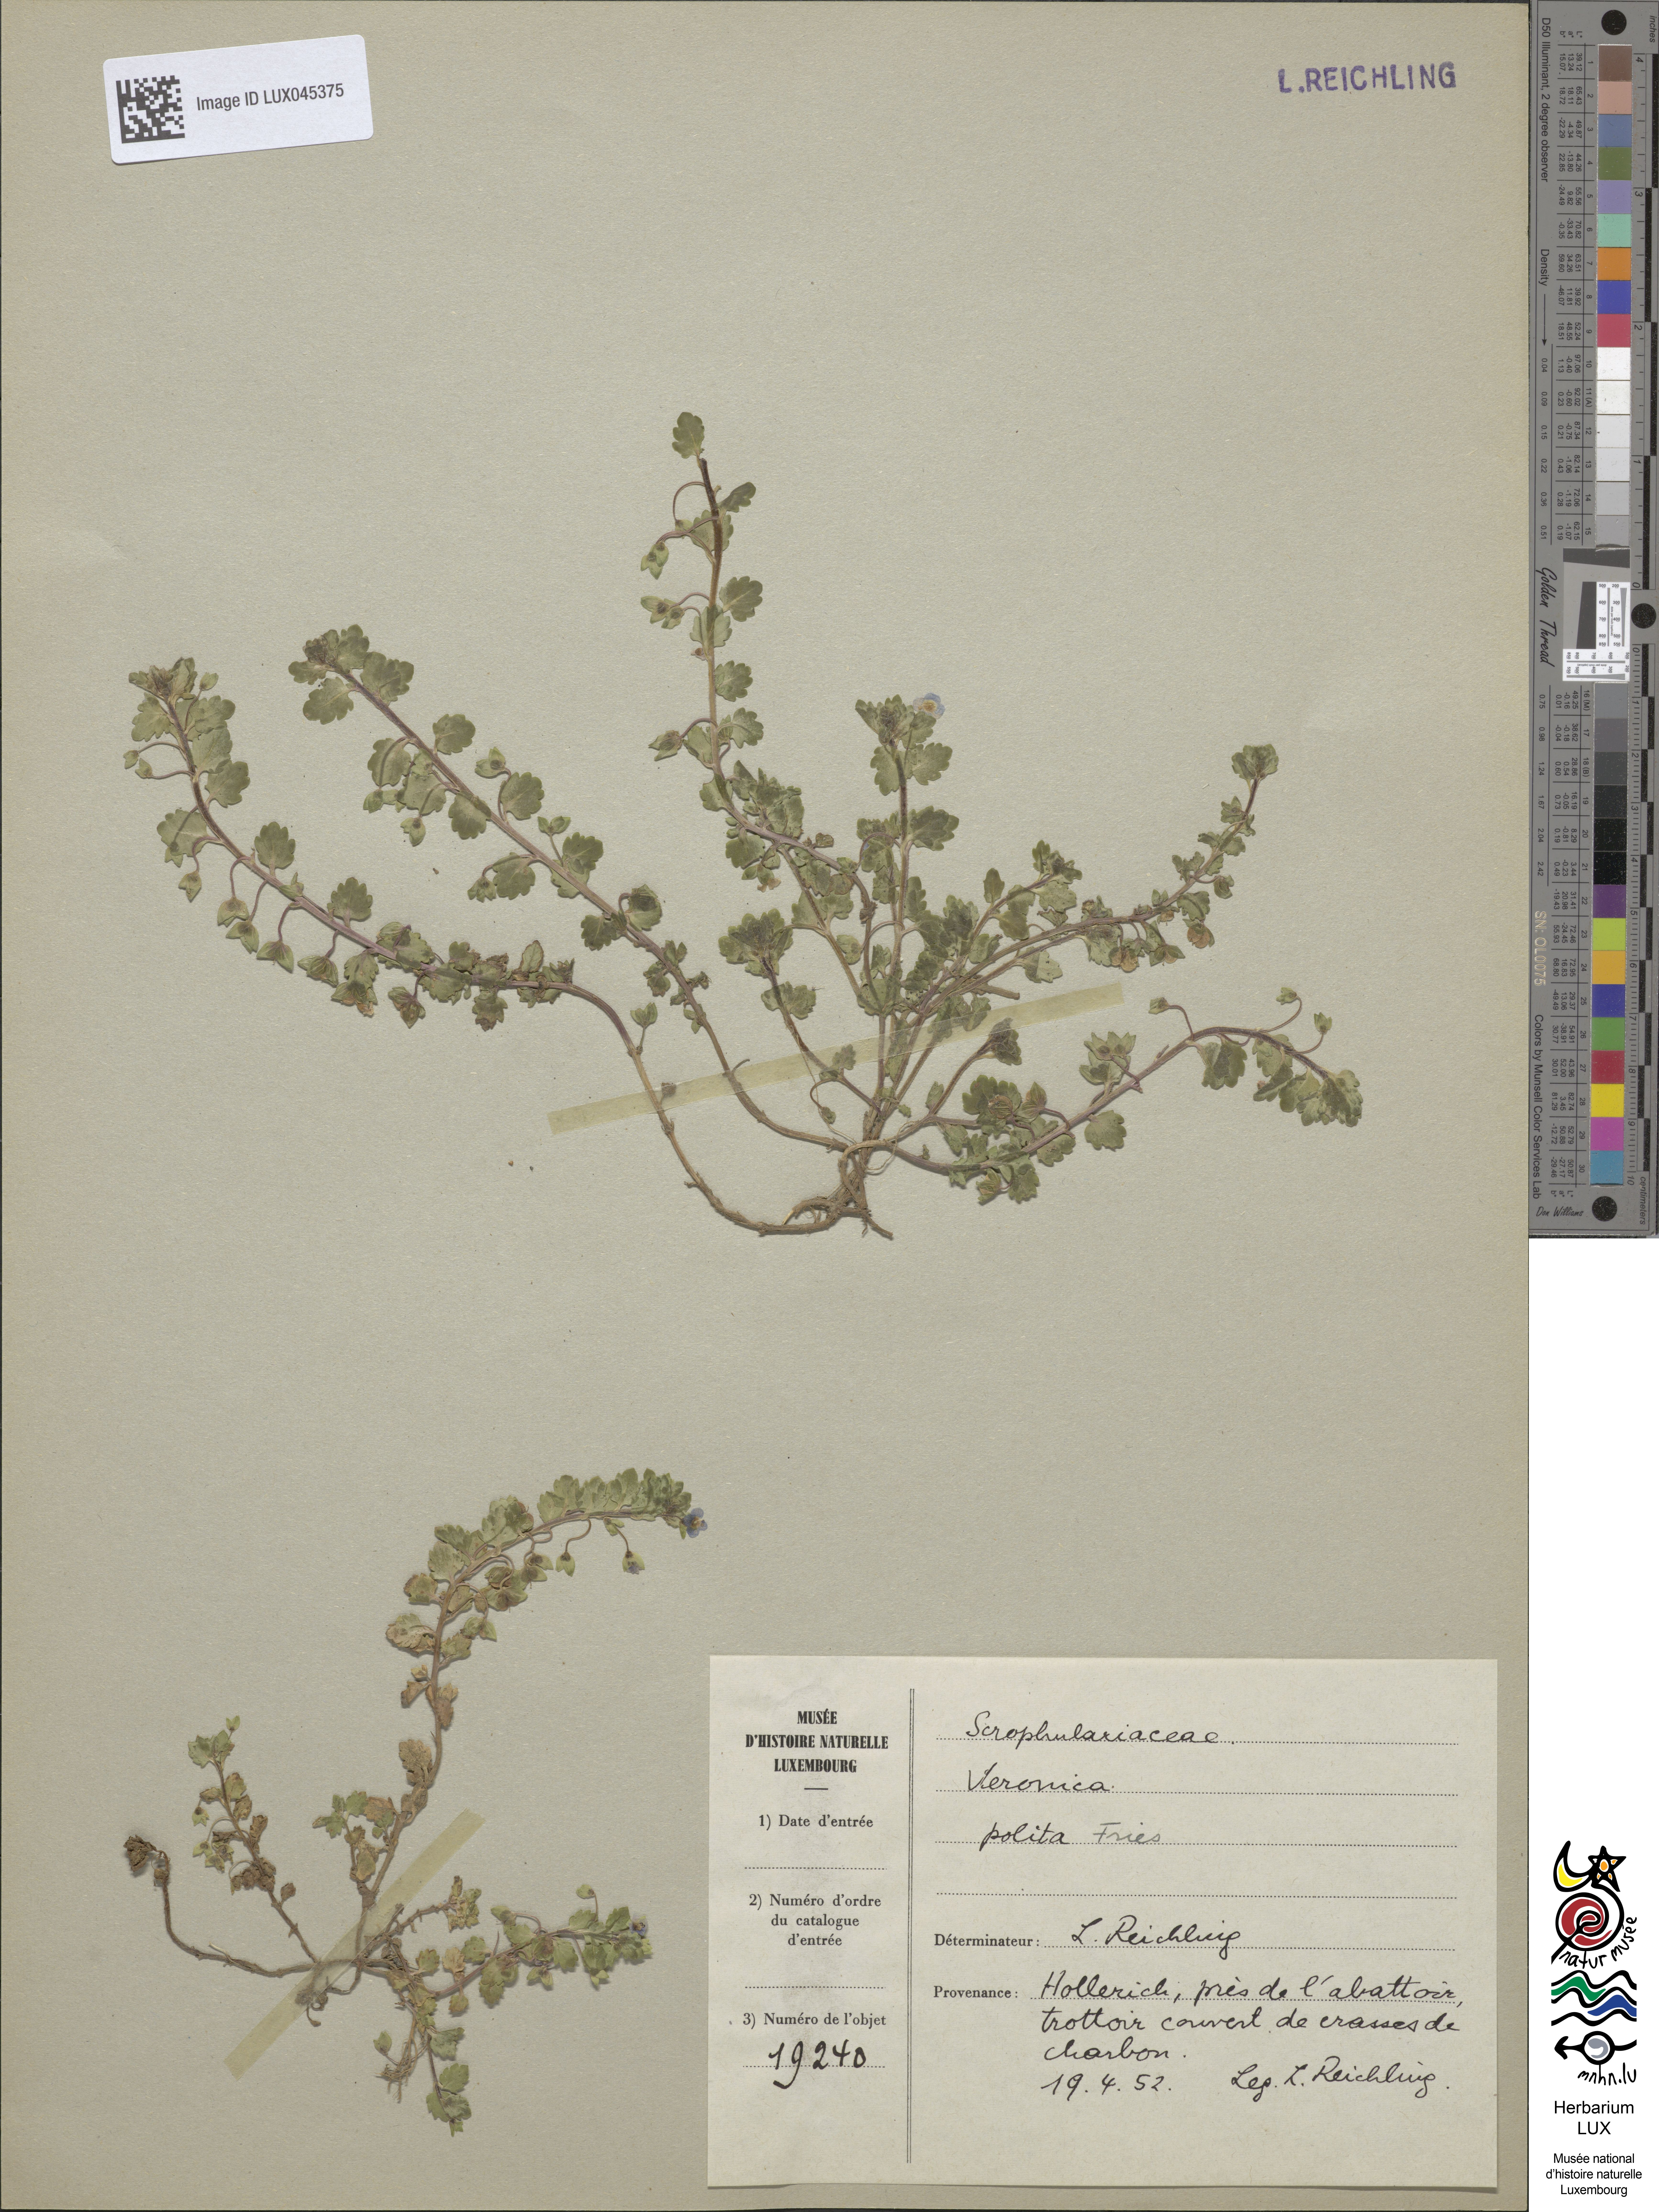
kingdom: Plantae
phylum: Tracheophyta
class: Magnoliopsida
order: Lamiales
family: Plantaginaceae
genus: Veronica
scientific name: Veronica polita
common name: Grey field-speedwell
